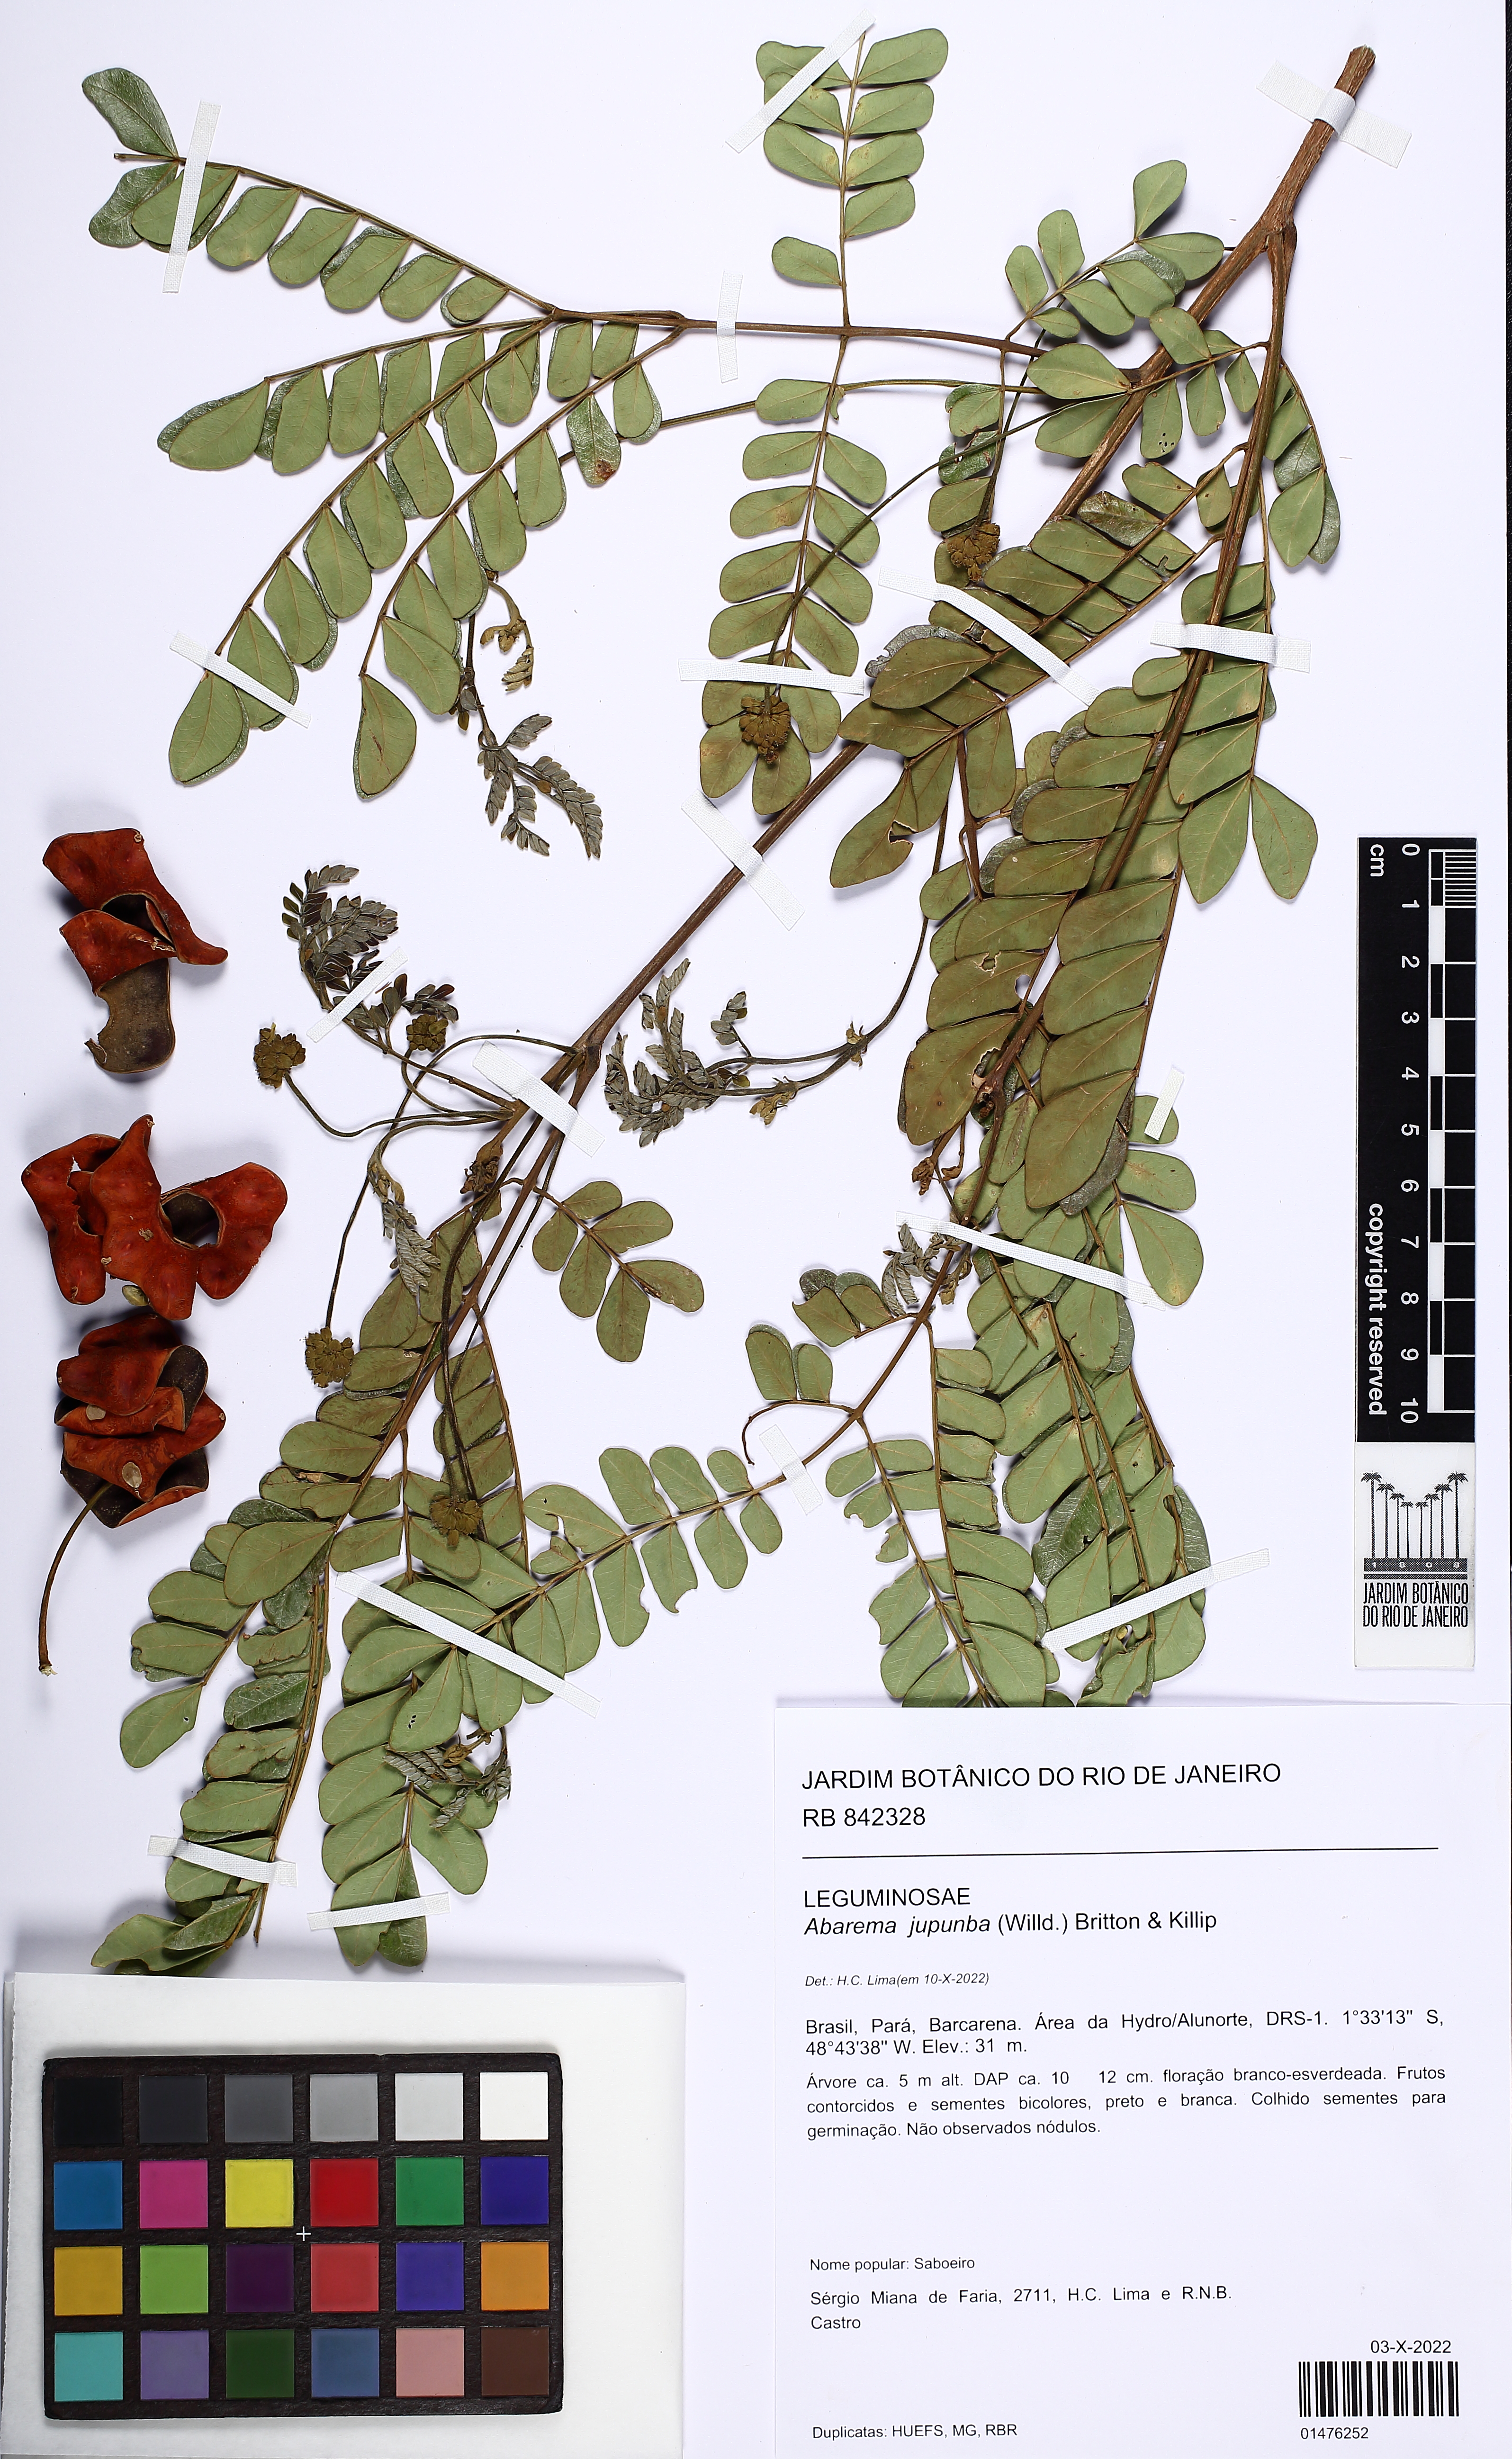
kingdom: Plantae
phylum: Tracheophyta
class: Magnoliopsida
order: Fabales
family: Fabaceae
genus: Jupunba
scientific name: Jupunba trapezifolia
